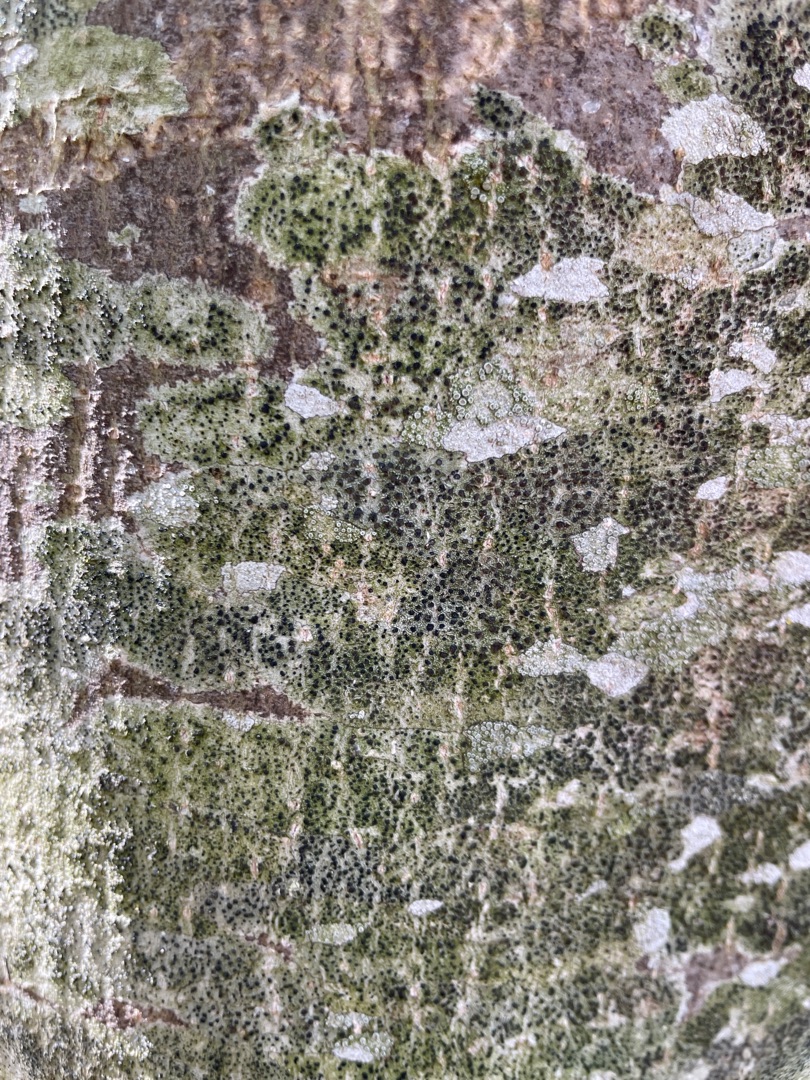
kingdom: Fungi
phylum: Ascomycota
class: Lecanoromycetes
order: Lecanorales
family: Lecanoraceae
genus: Lecidella
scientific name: Lecidella elaeochroma
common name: Grågrøn skivelav
